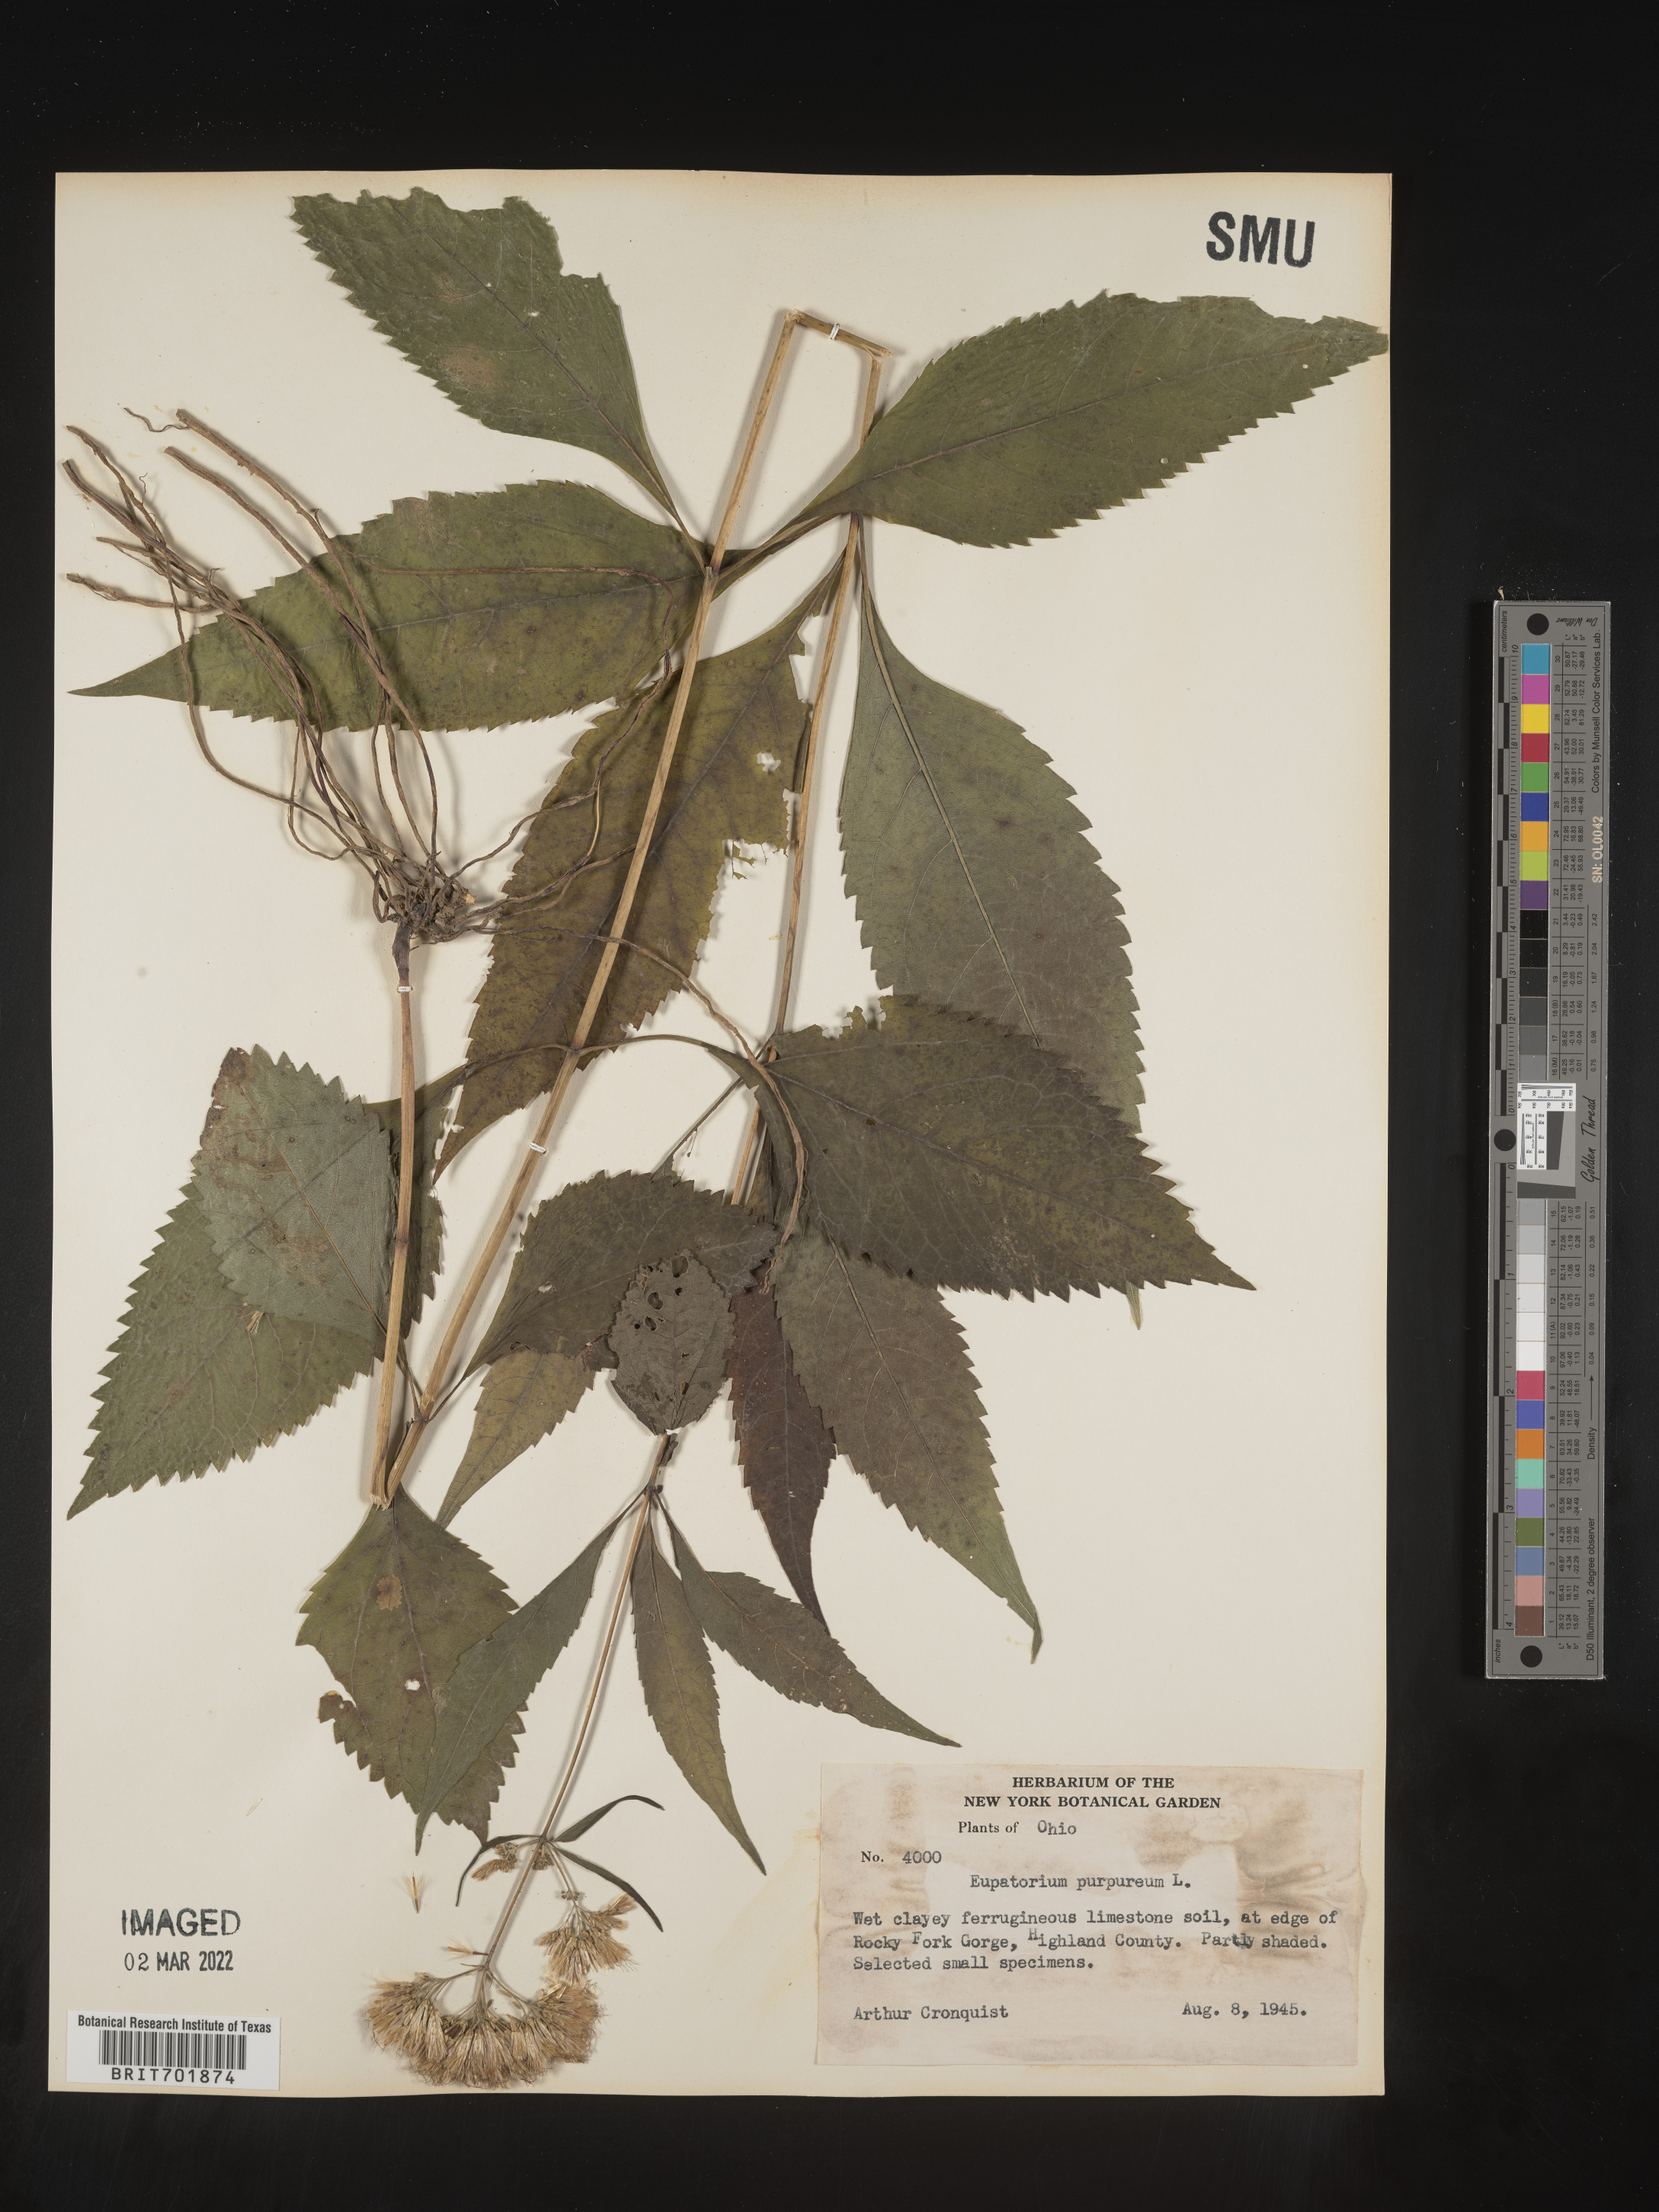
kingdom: Plantae
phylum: Tracheophyta
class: Magnoliopsida
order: Asterales
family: Asteraceae
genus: Eupatorium
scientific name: Eupatorium quaternum
